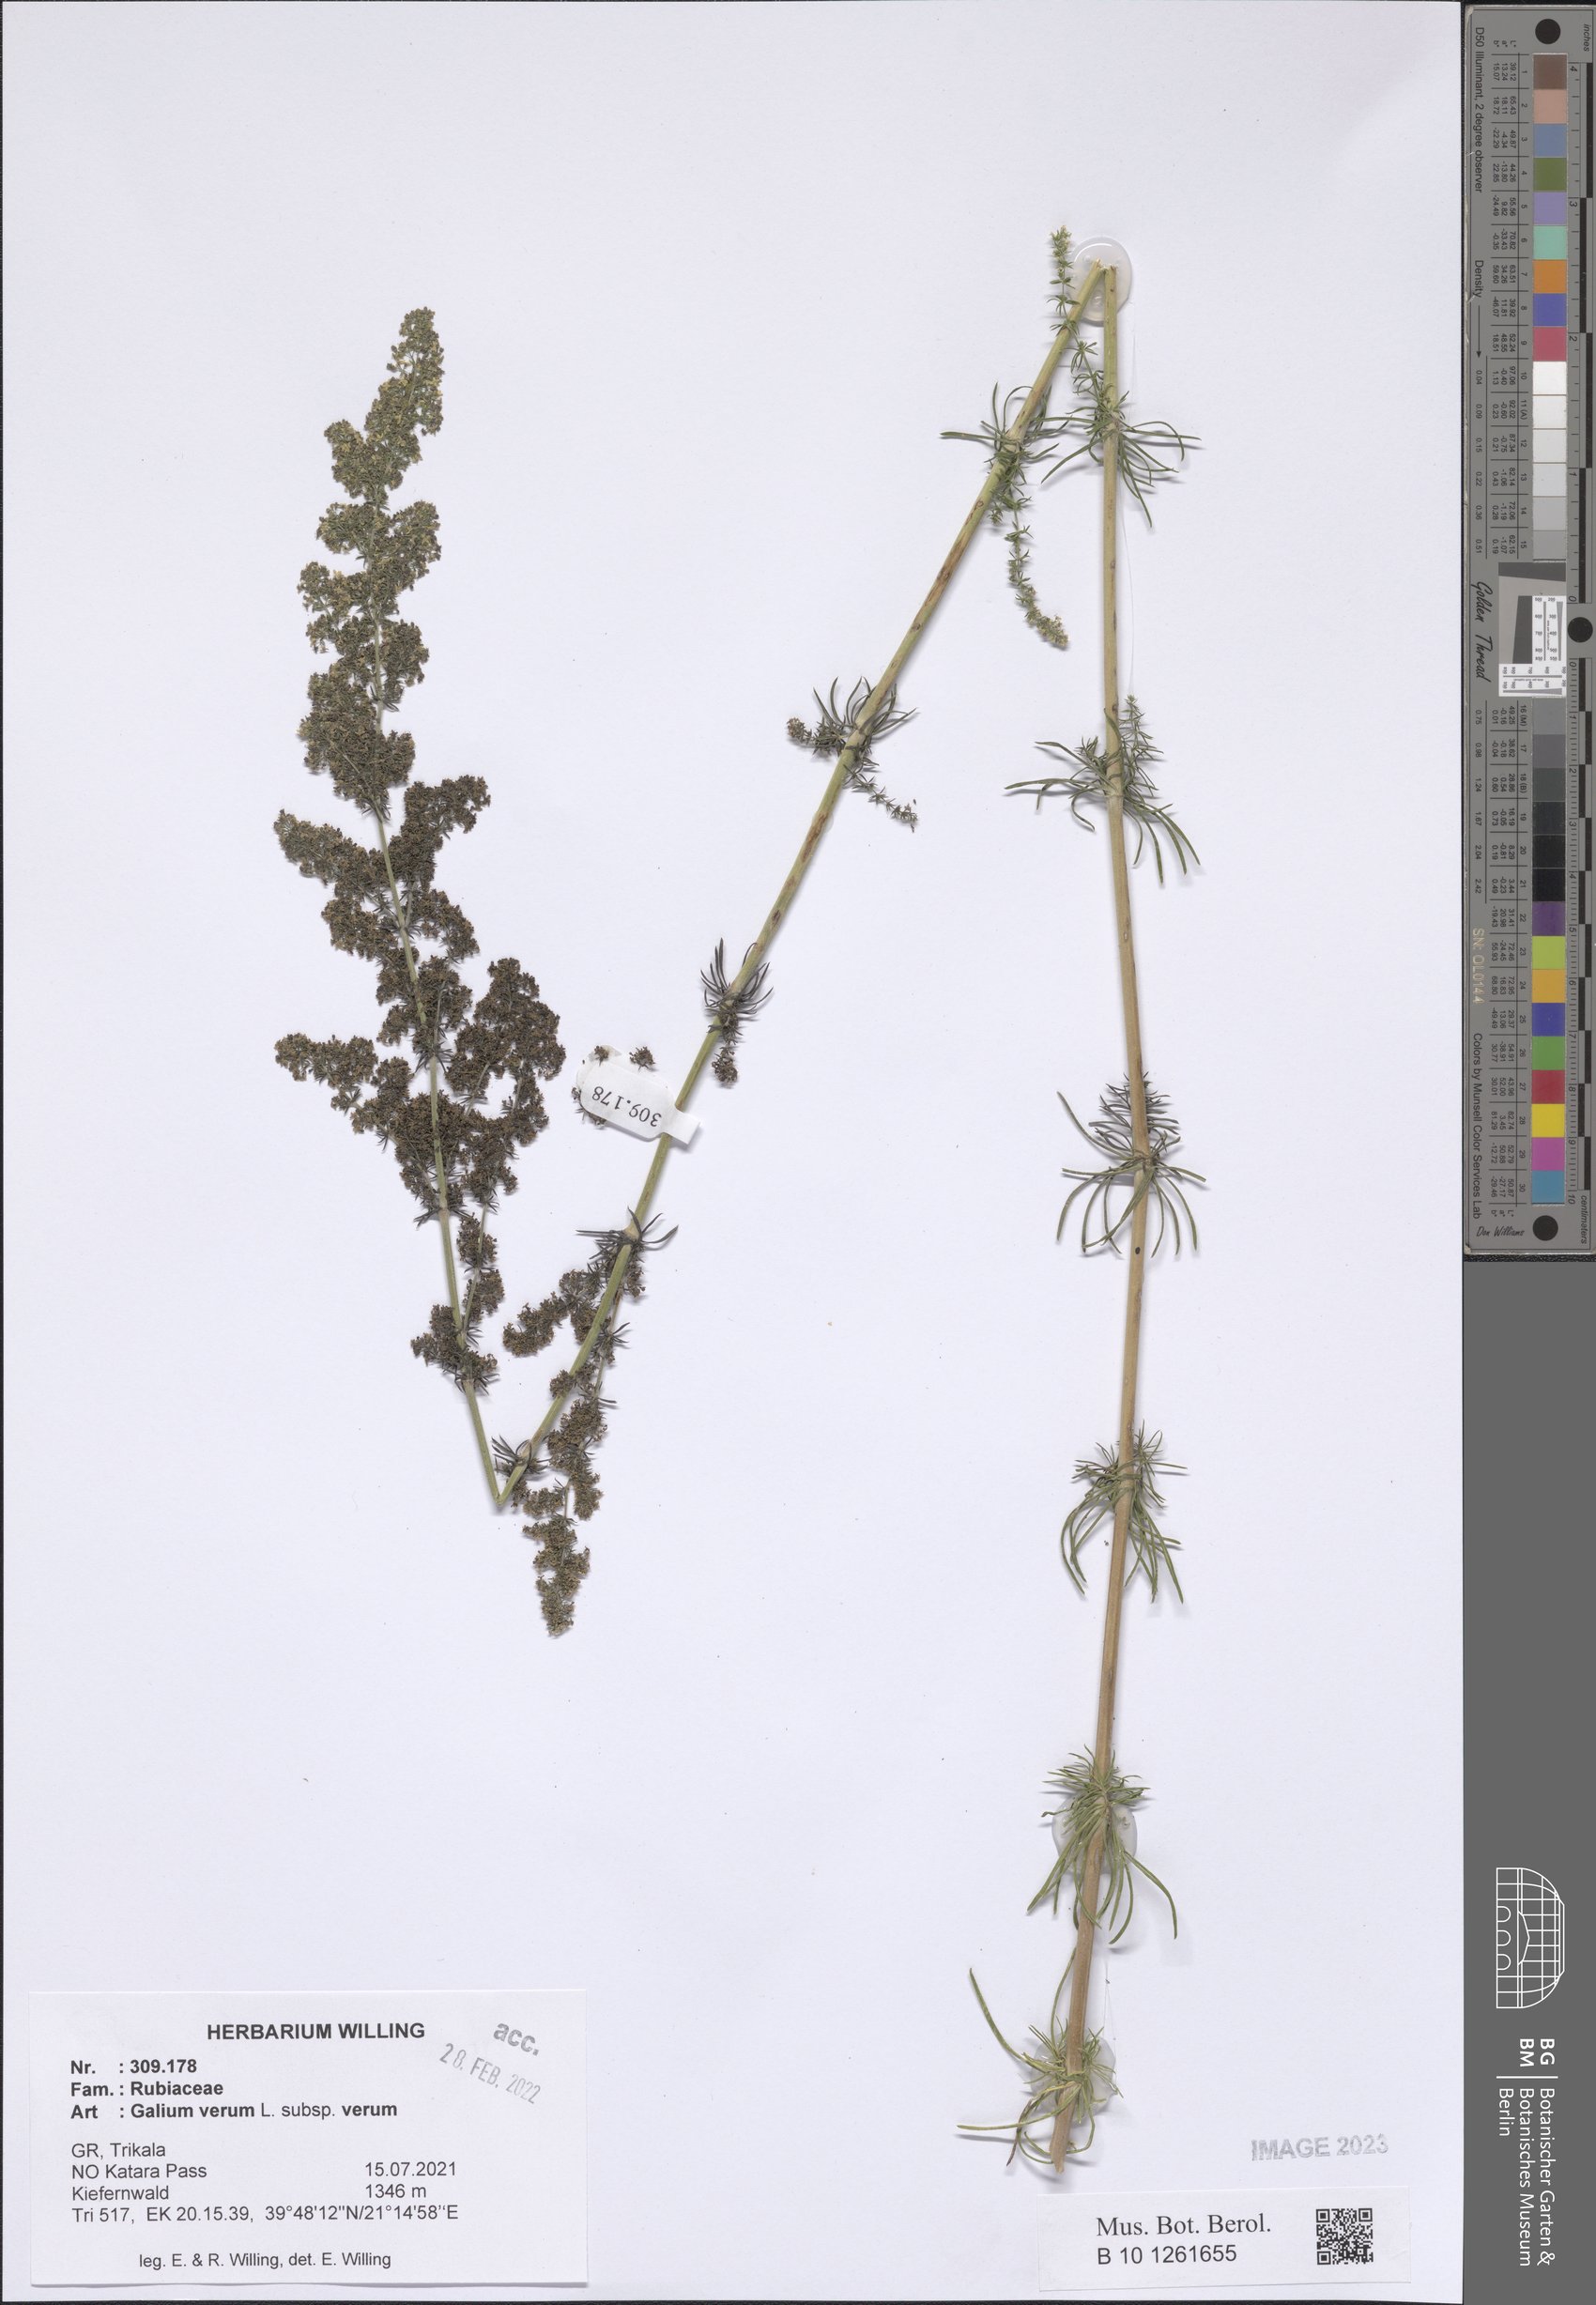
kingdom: Plantae
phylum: Tracheophyta
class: Magnoliopsida
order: Gentianales
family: Rubiaceae
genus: Galium
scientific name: Galium verum
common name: Lady's bedstraw
